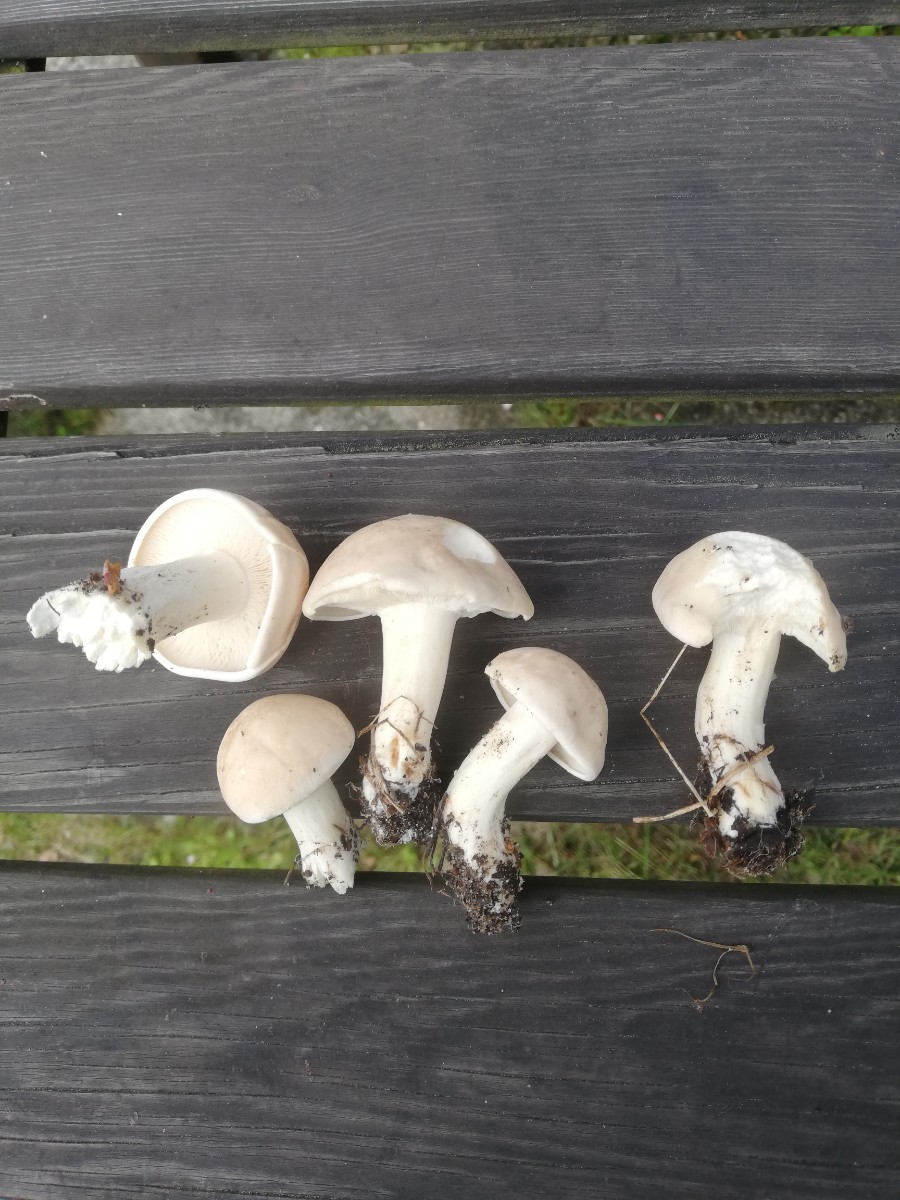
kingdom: Fungi
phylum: Basidiomycota
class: Agaricomycetes
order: Agaricales
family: Lyophyllaceae
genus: Calocybe
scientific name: Calocybe gambosa
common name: vårmusseron
